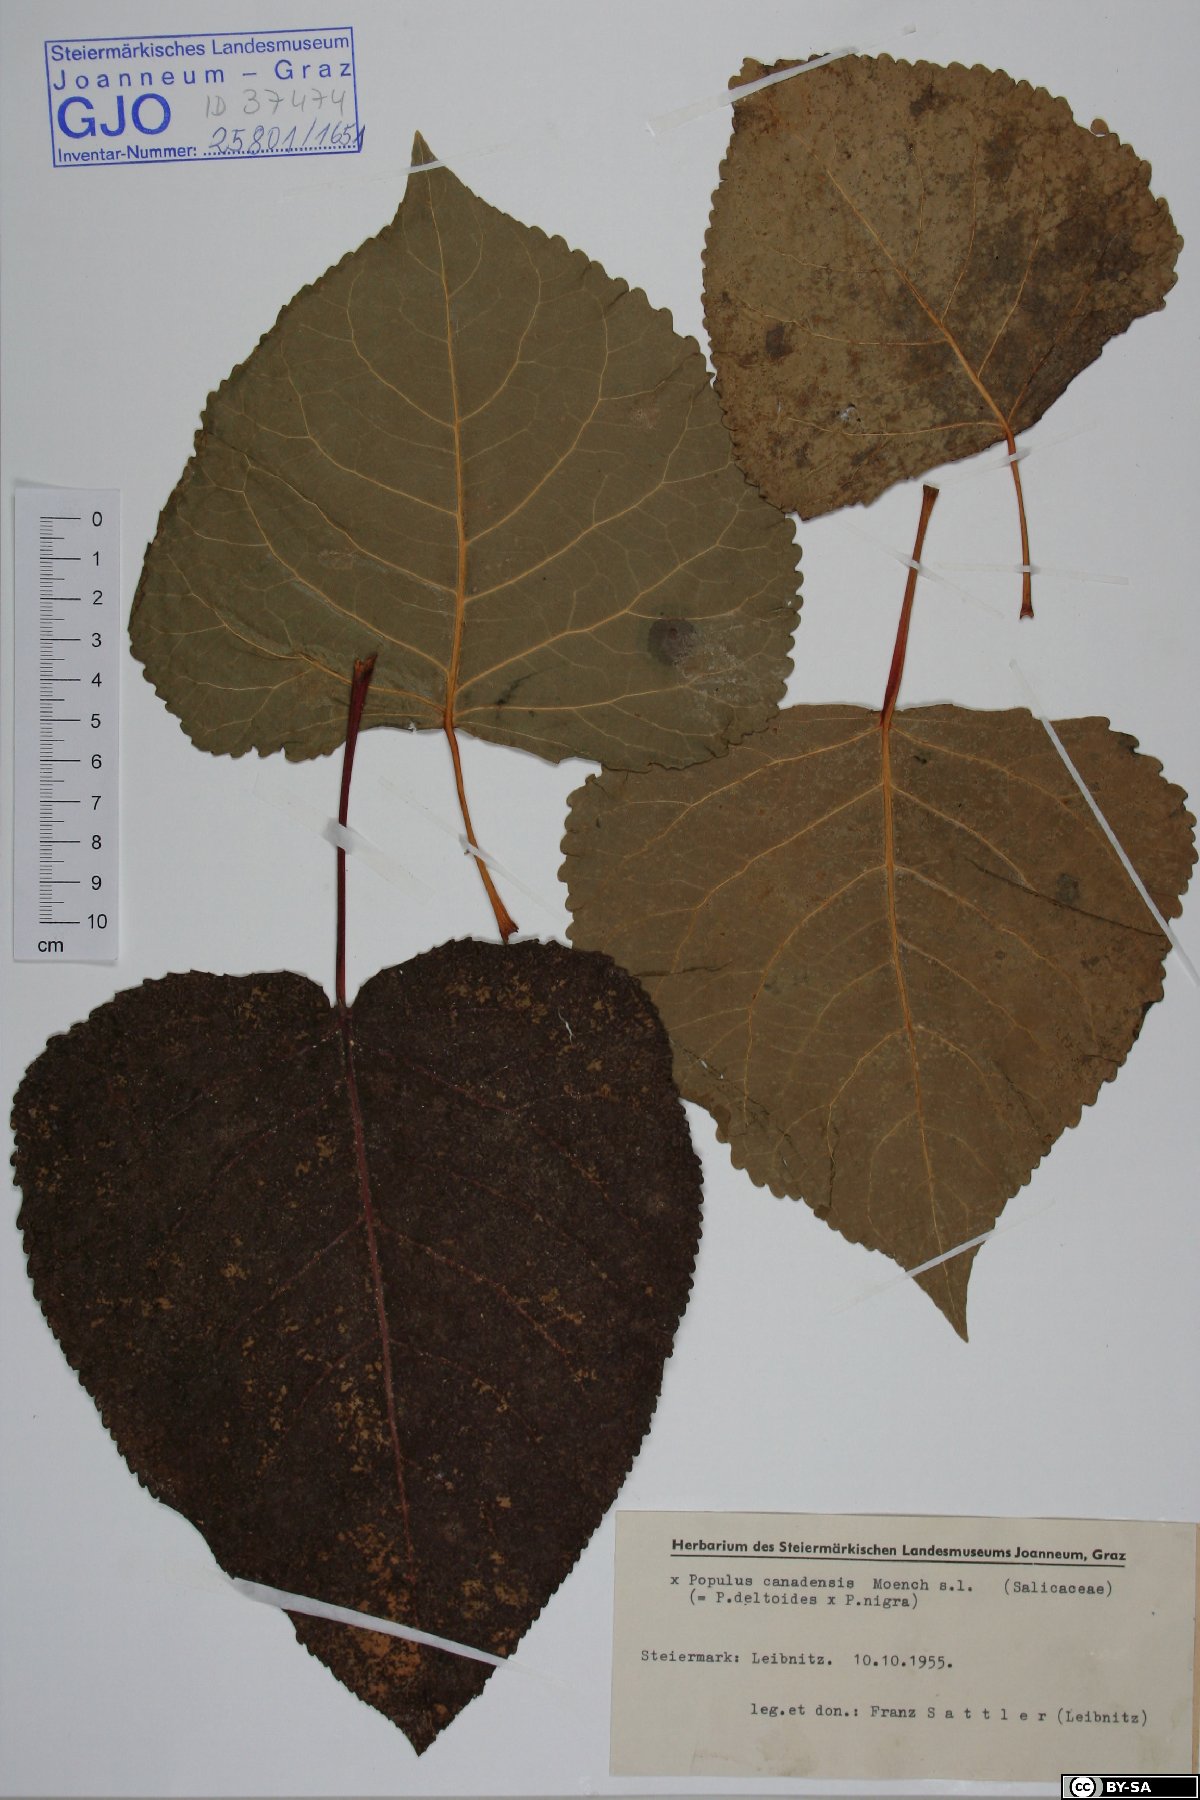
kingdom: Plantae
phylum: Tracheophyta
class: Magnoliopsida
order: Malpighiales
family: Salicaceae
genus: Populus
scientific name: Populus canadensis
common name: Carolina poplar
